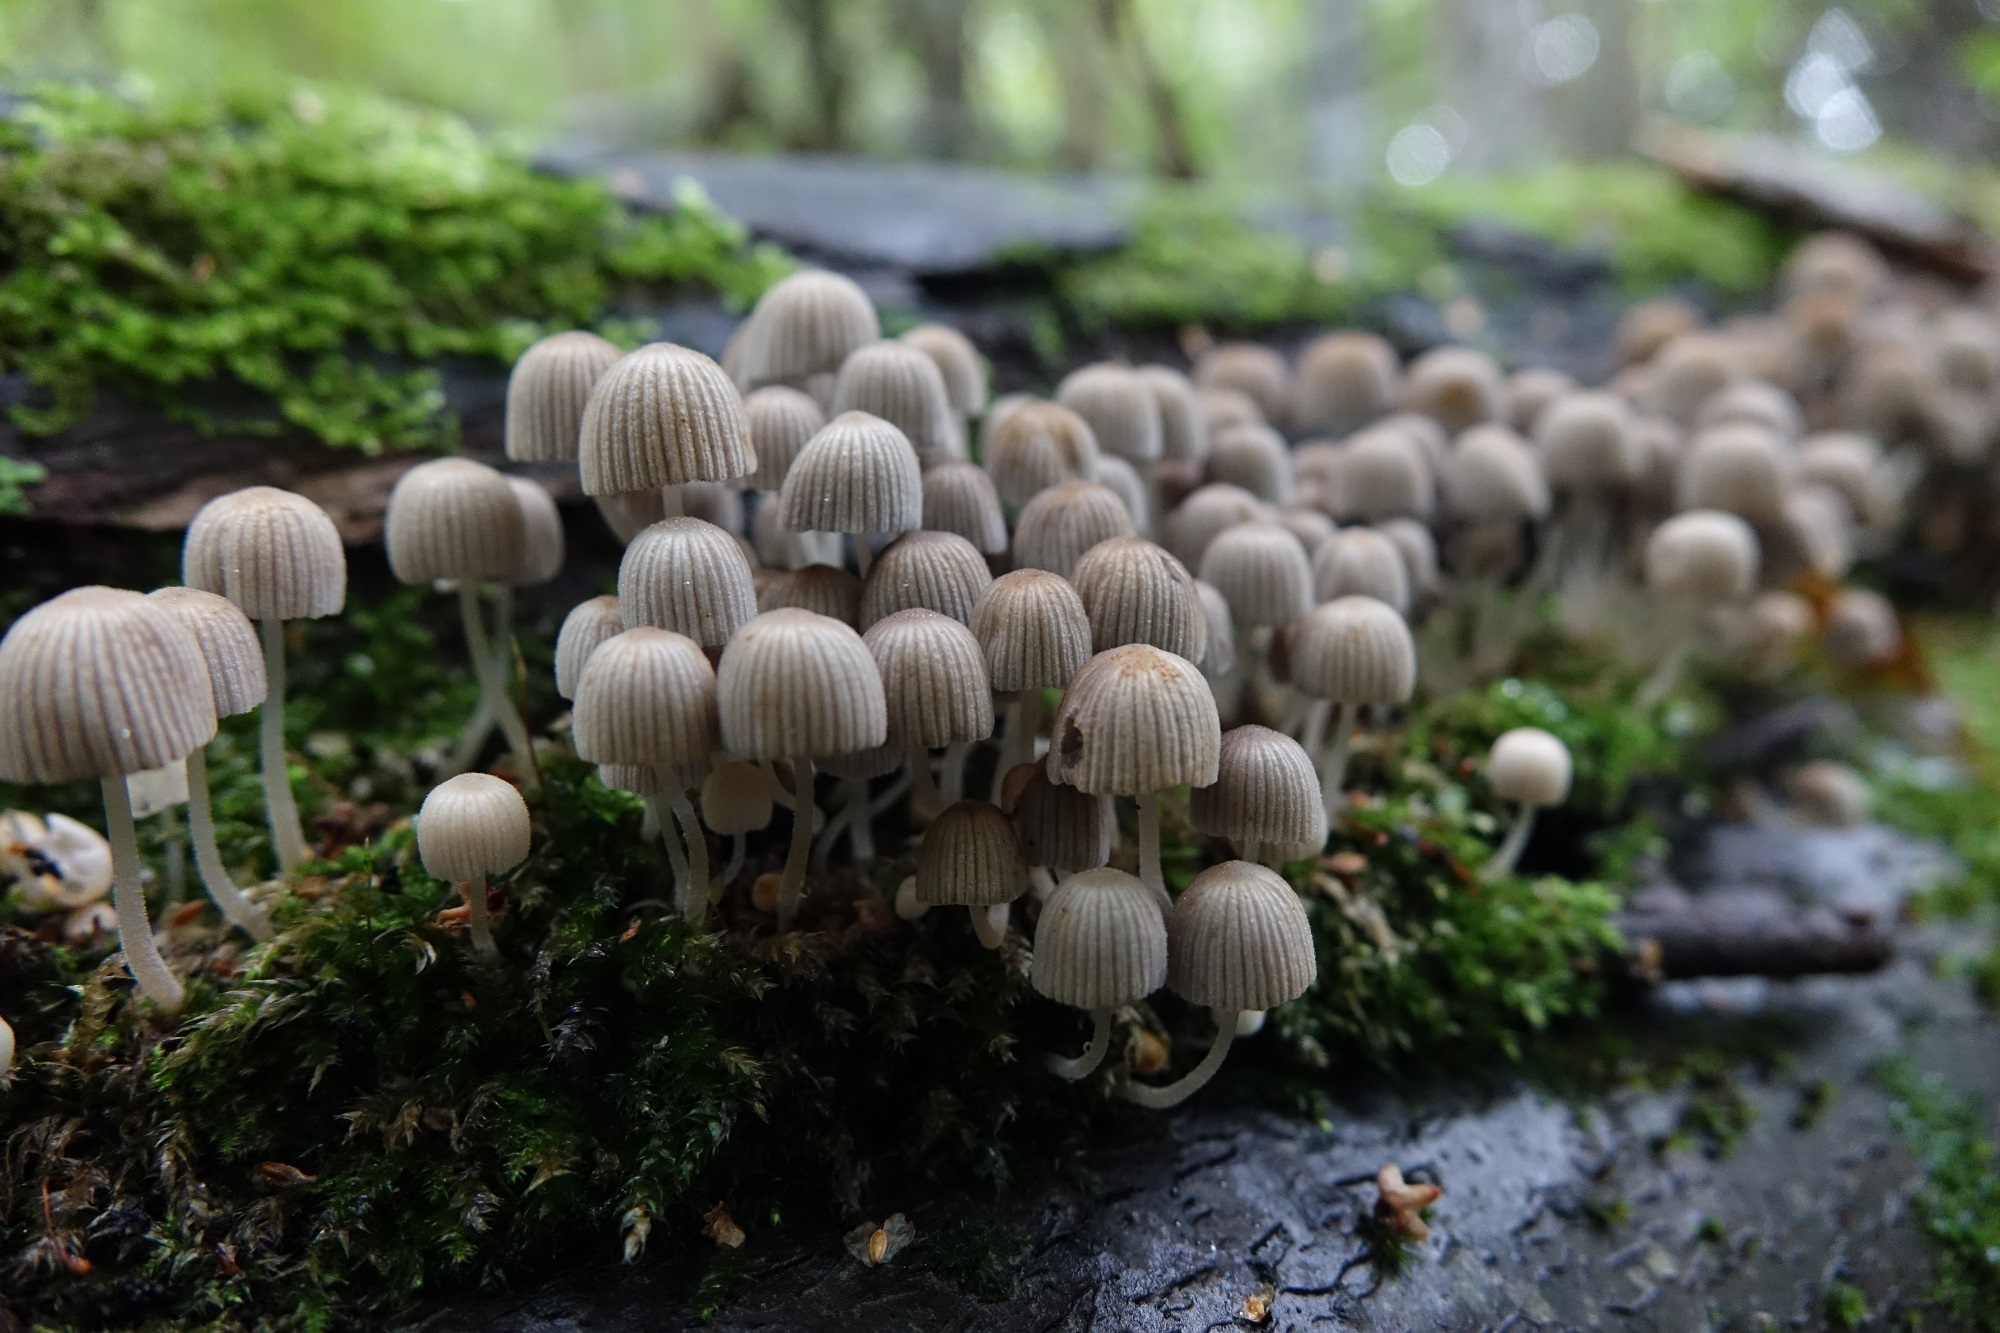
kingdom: Fungi
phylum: Basidiomycota
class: Agaricomycetes
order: Agaricales
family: Psathyrellaceae
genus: Coprinellus
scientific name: Coprinellus disseminatus
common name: Fairies' bonnets
